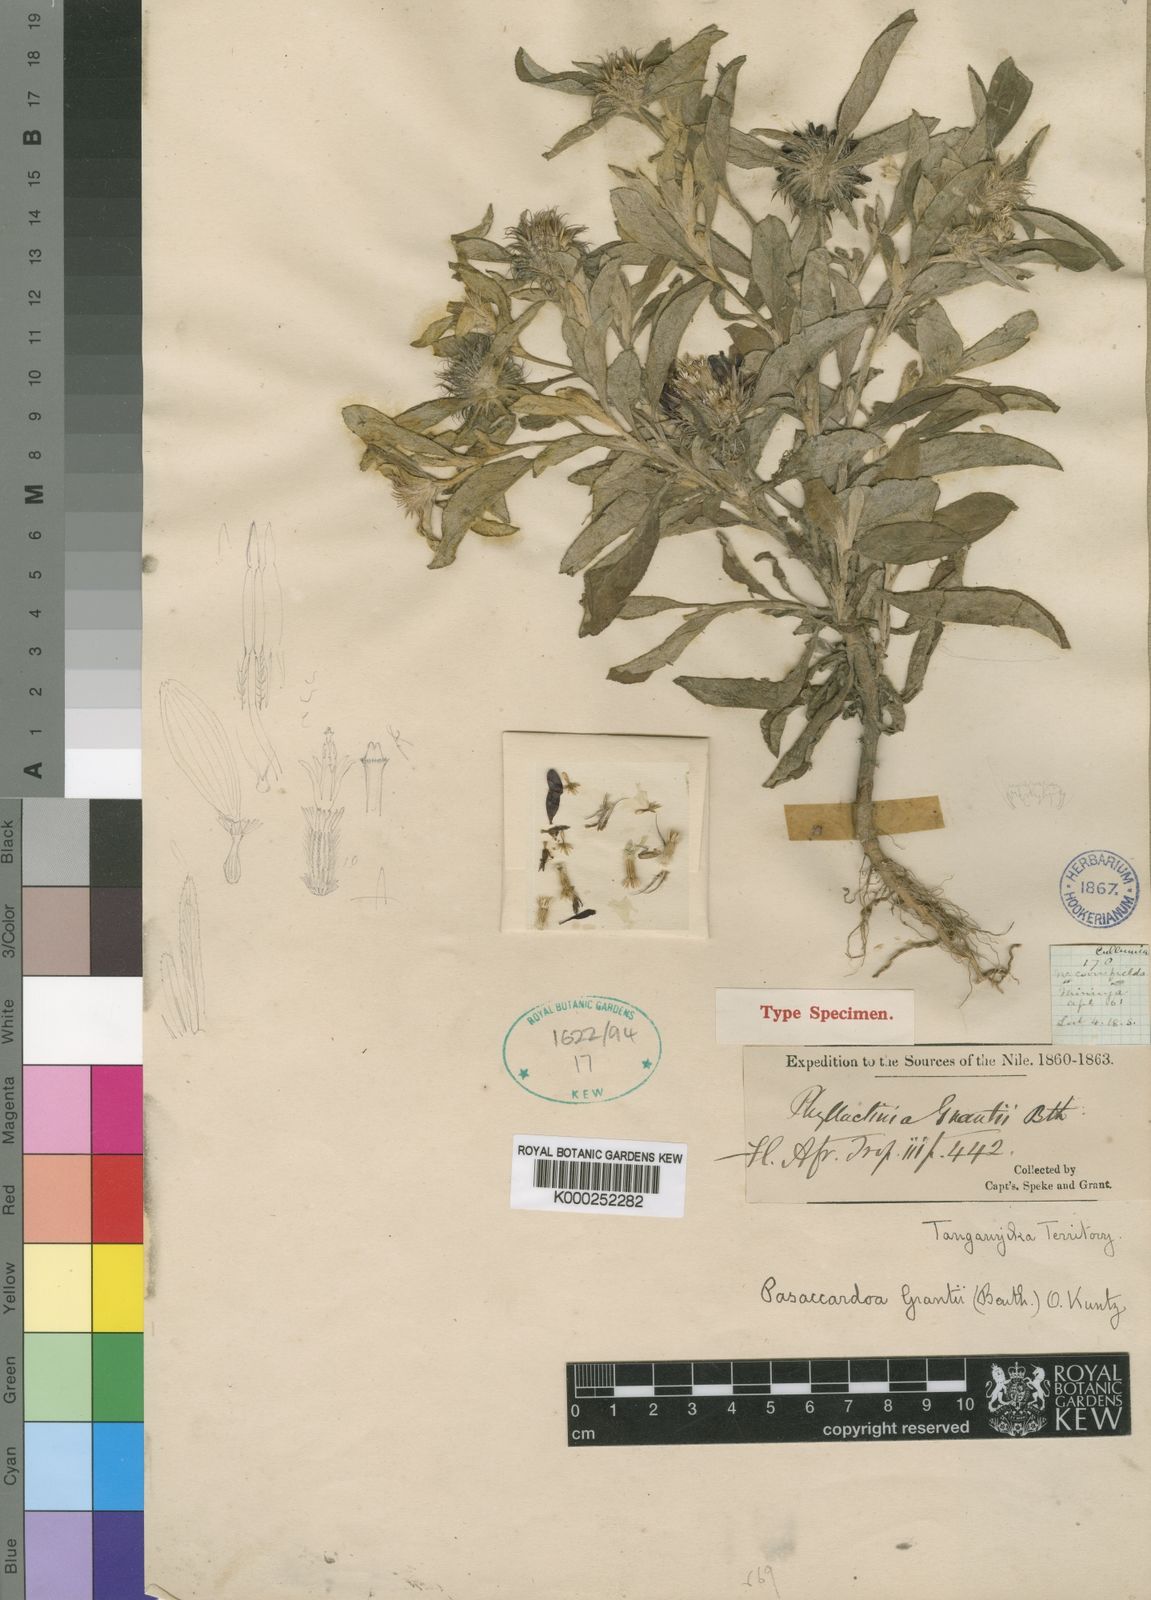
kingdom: Plantae
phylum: Tracheophyta
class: Magnoliopsida
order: Asterales
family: Asteraceae
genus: Pasaccardoa
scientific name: Pasaccardoa grantii
